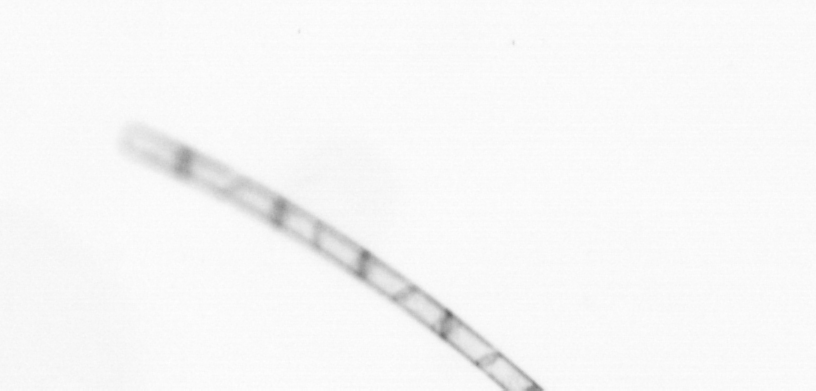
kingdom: Chromista
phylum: Ochrophyta
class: Bacillariophyceae
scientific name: Bacillariophyceae
